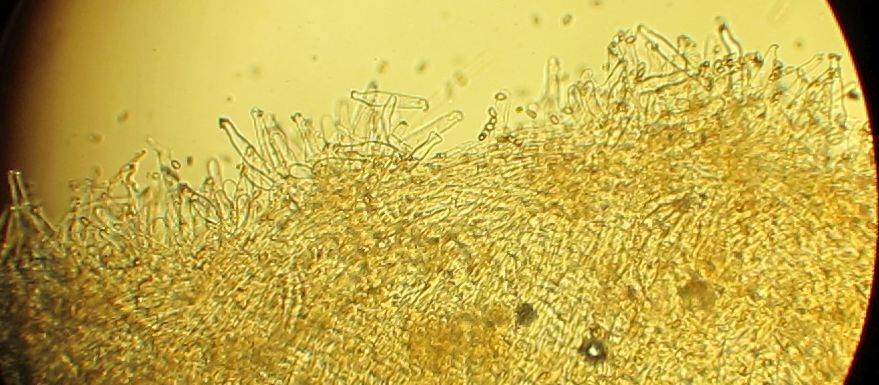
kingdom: Fungi
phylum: Basidiomycota
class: Agaricomycetes
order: Agaricales
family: Inocybaceae
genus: Inocybe
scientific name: Inocybe
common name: trævlhat
